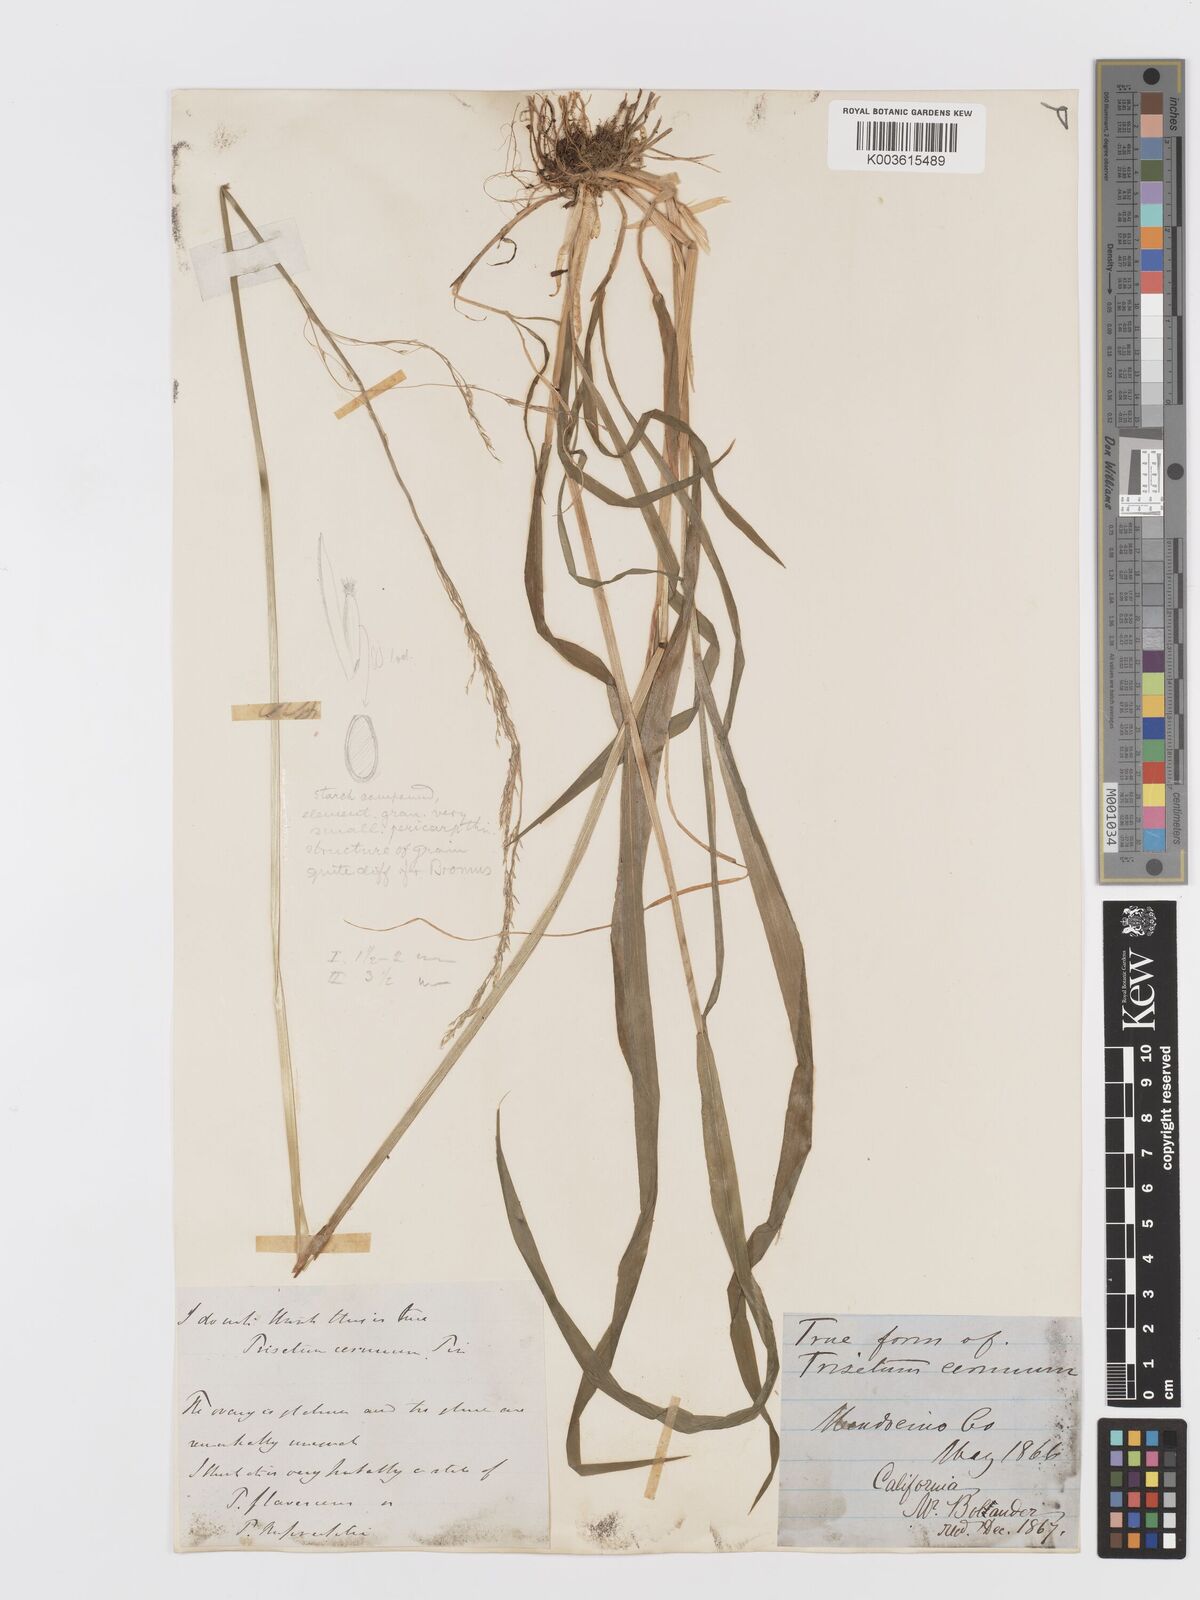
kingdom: Plantae
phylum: Tracheophyta
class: Liliopsida
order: Poales
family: Poaceae
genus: Graphephorum
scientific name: Graphephorum cernuum
